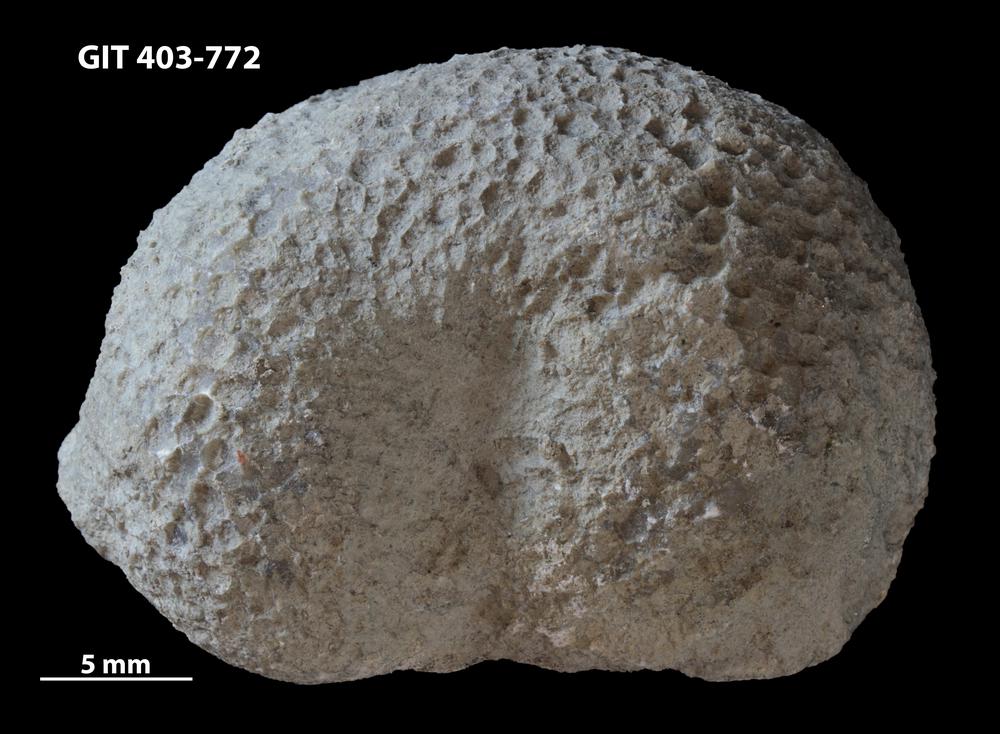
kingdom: Animalia
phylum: Cnidaria
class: Anthozoa
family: Favositidae
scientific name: Favositidae
